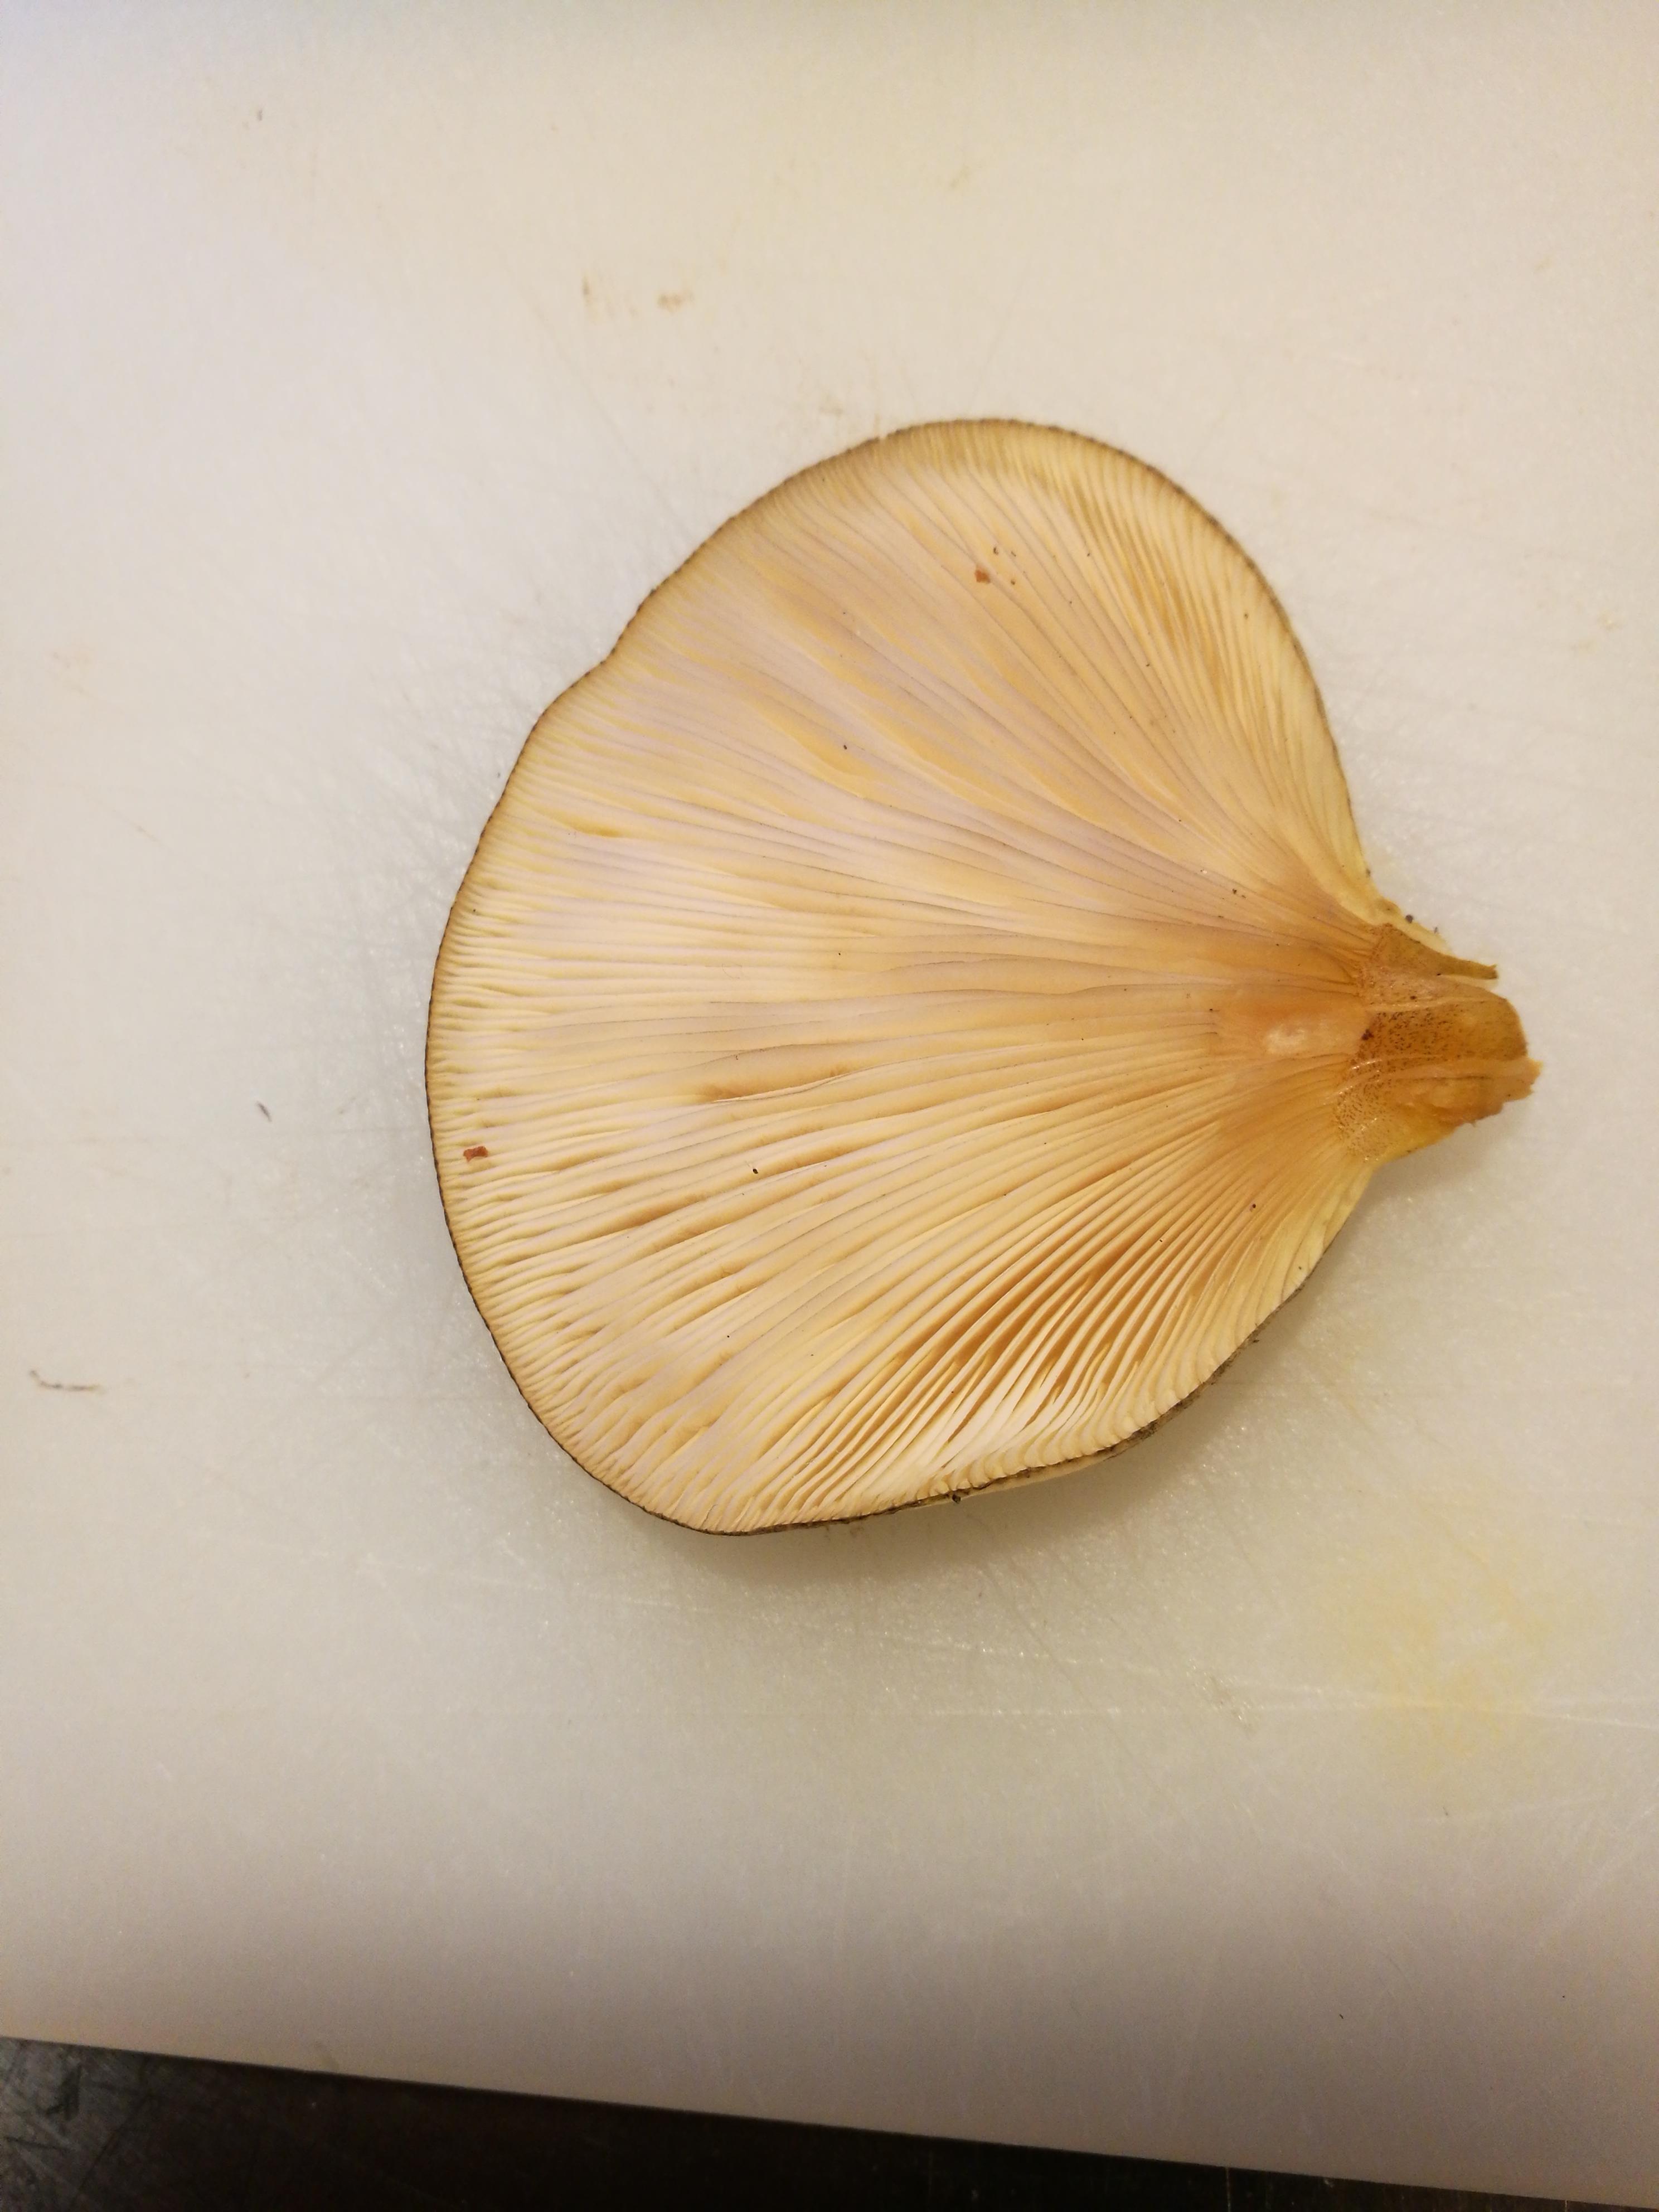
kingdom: Fungi
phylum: Basidiomycota
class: Agaricomycetes
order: Agaricales
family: Sarcomyxaceae
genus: Sarcomyxa
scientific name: Sarcomyxa serotina
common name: gummihat
